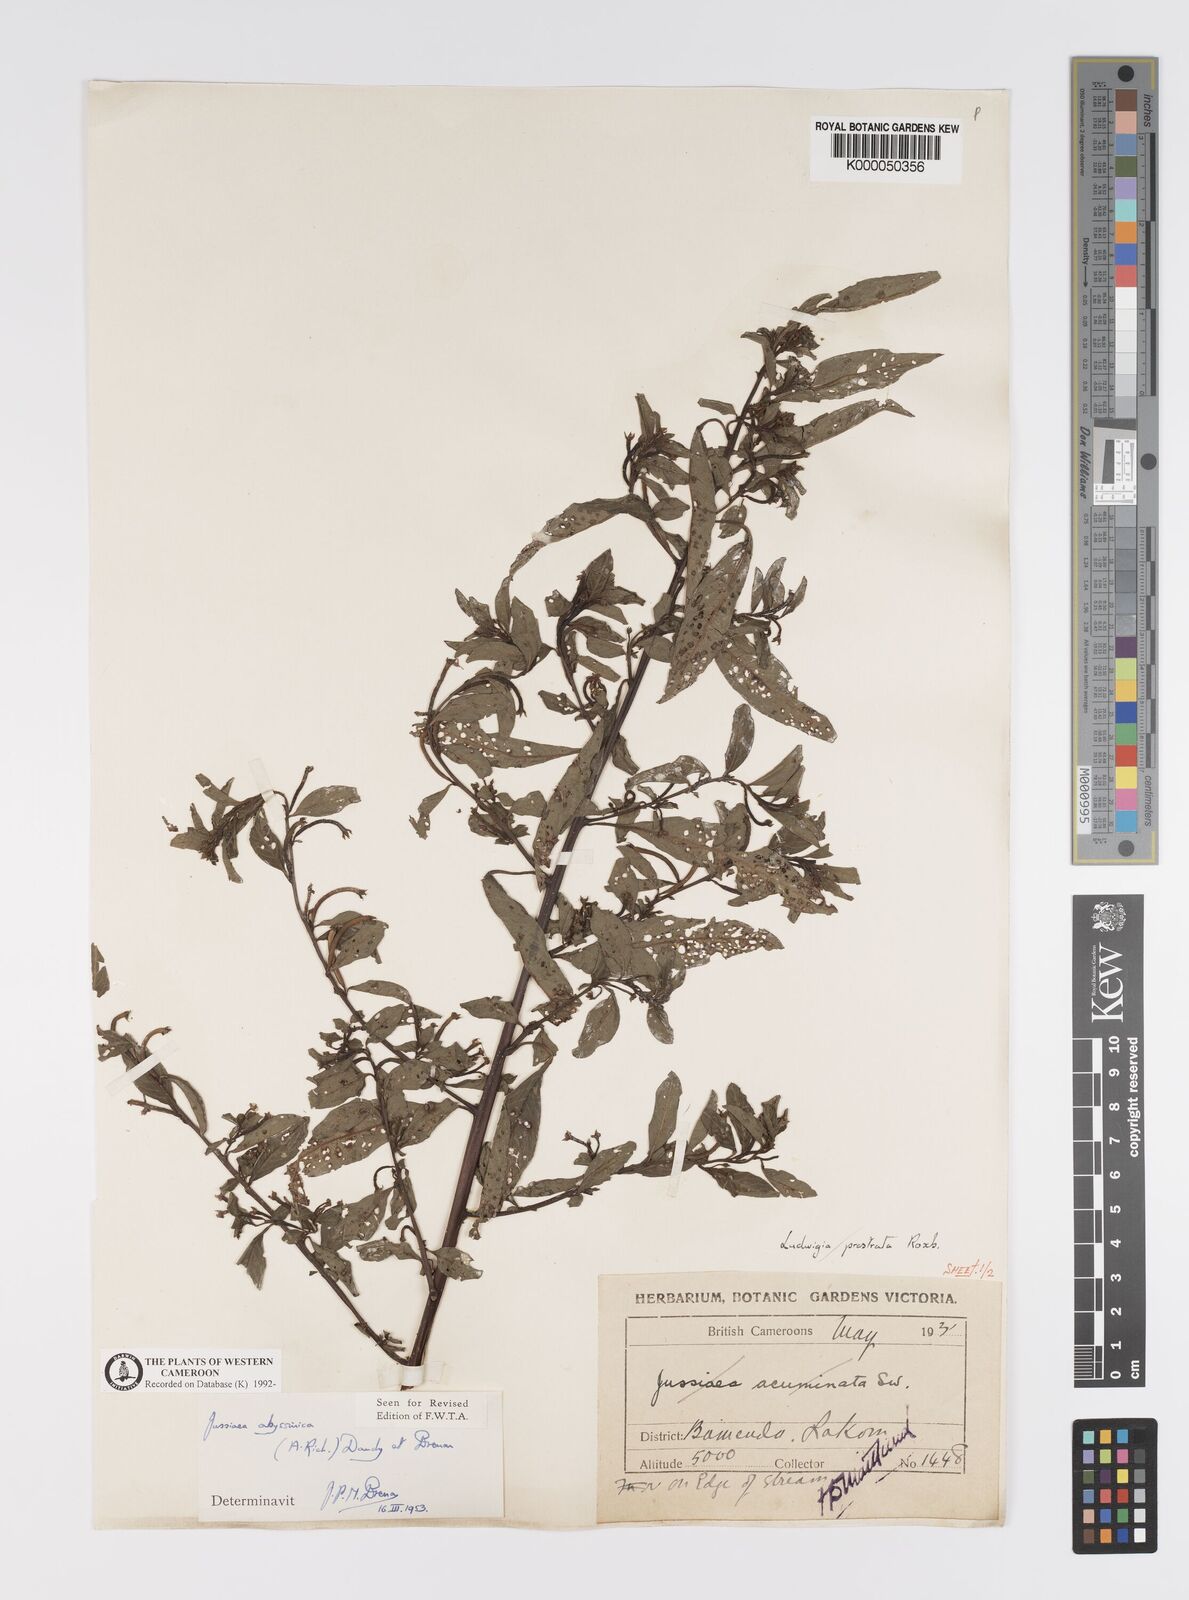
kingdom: Plantae
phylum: Tracheophyta
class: Magnoliopsida
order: Myrtales
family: Onagraceae
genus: Ludwigia
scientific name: Ludwigia abyssinica
